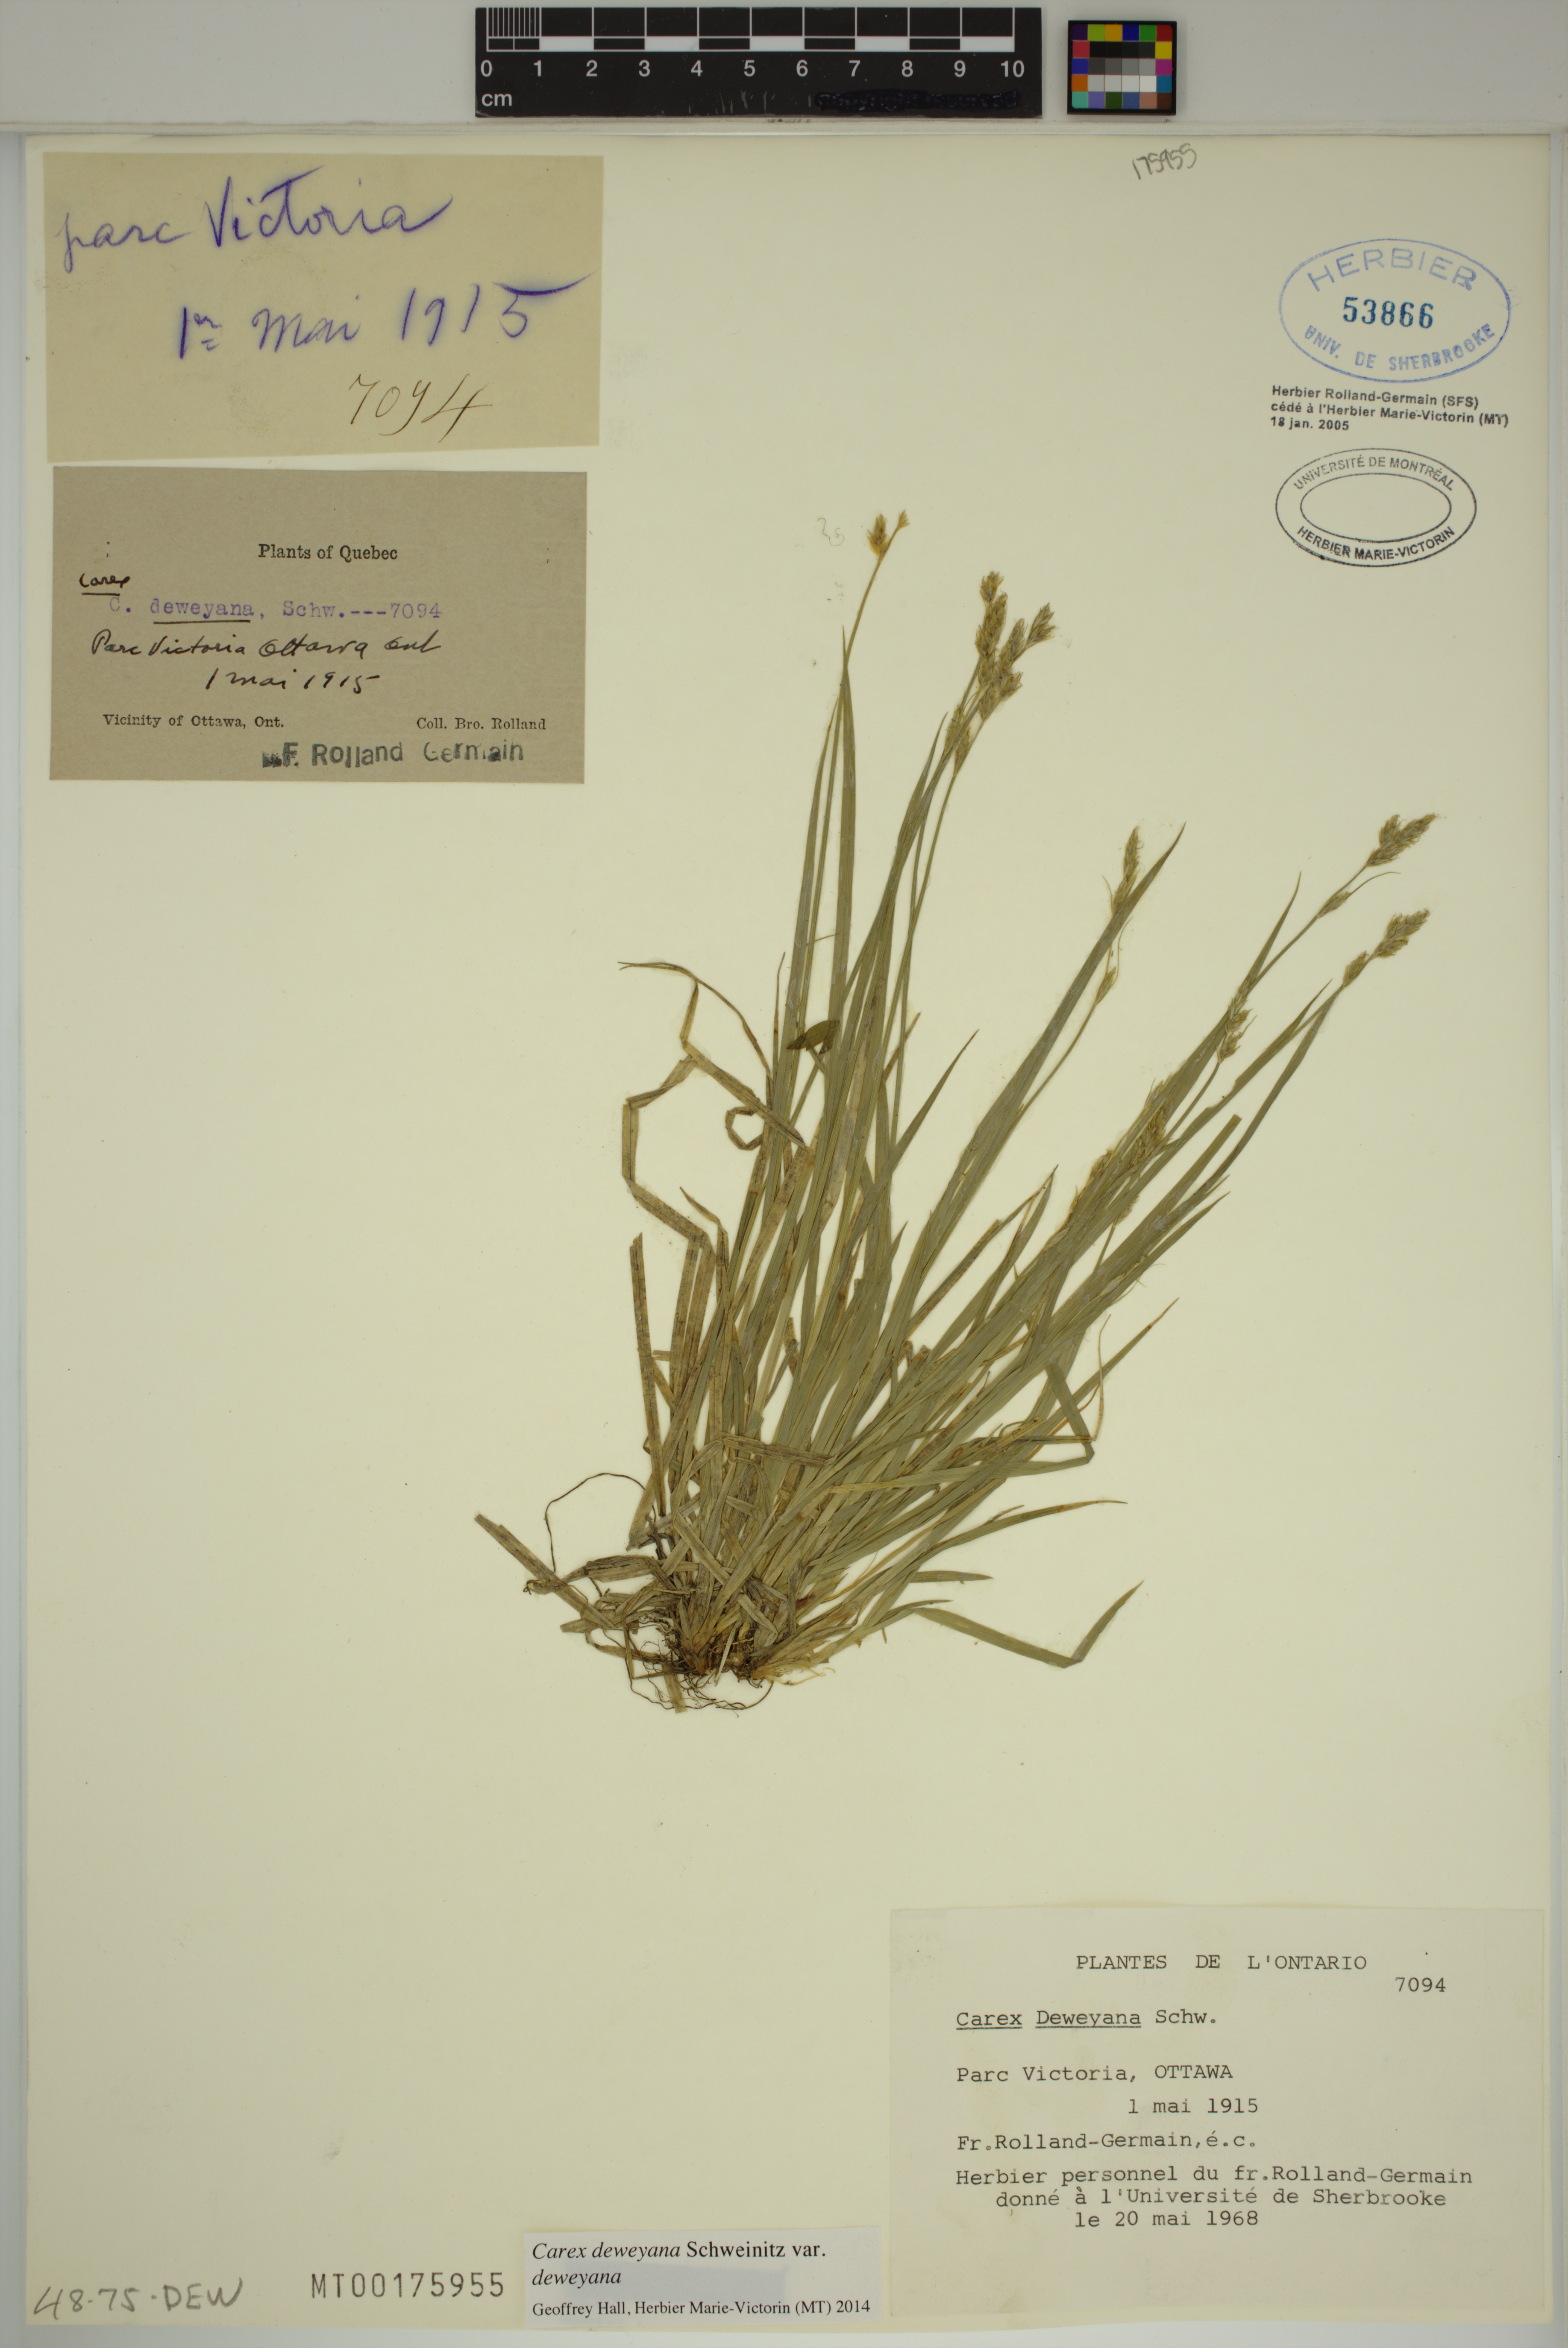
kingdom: Plantae
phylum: Tracheophyta
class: Liliopsida
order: Poales
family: Cyperaceae
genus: Carex
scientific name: Carex deweyana
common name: Dewey's sedge
